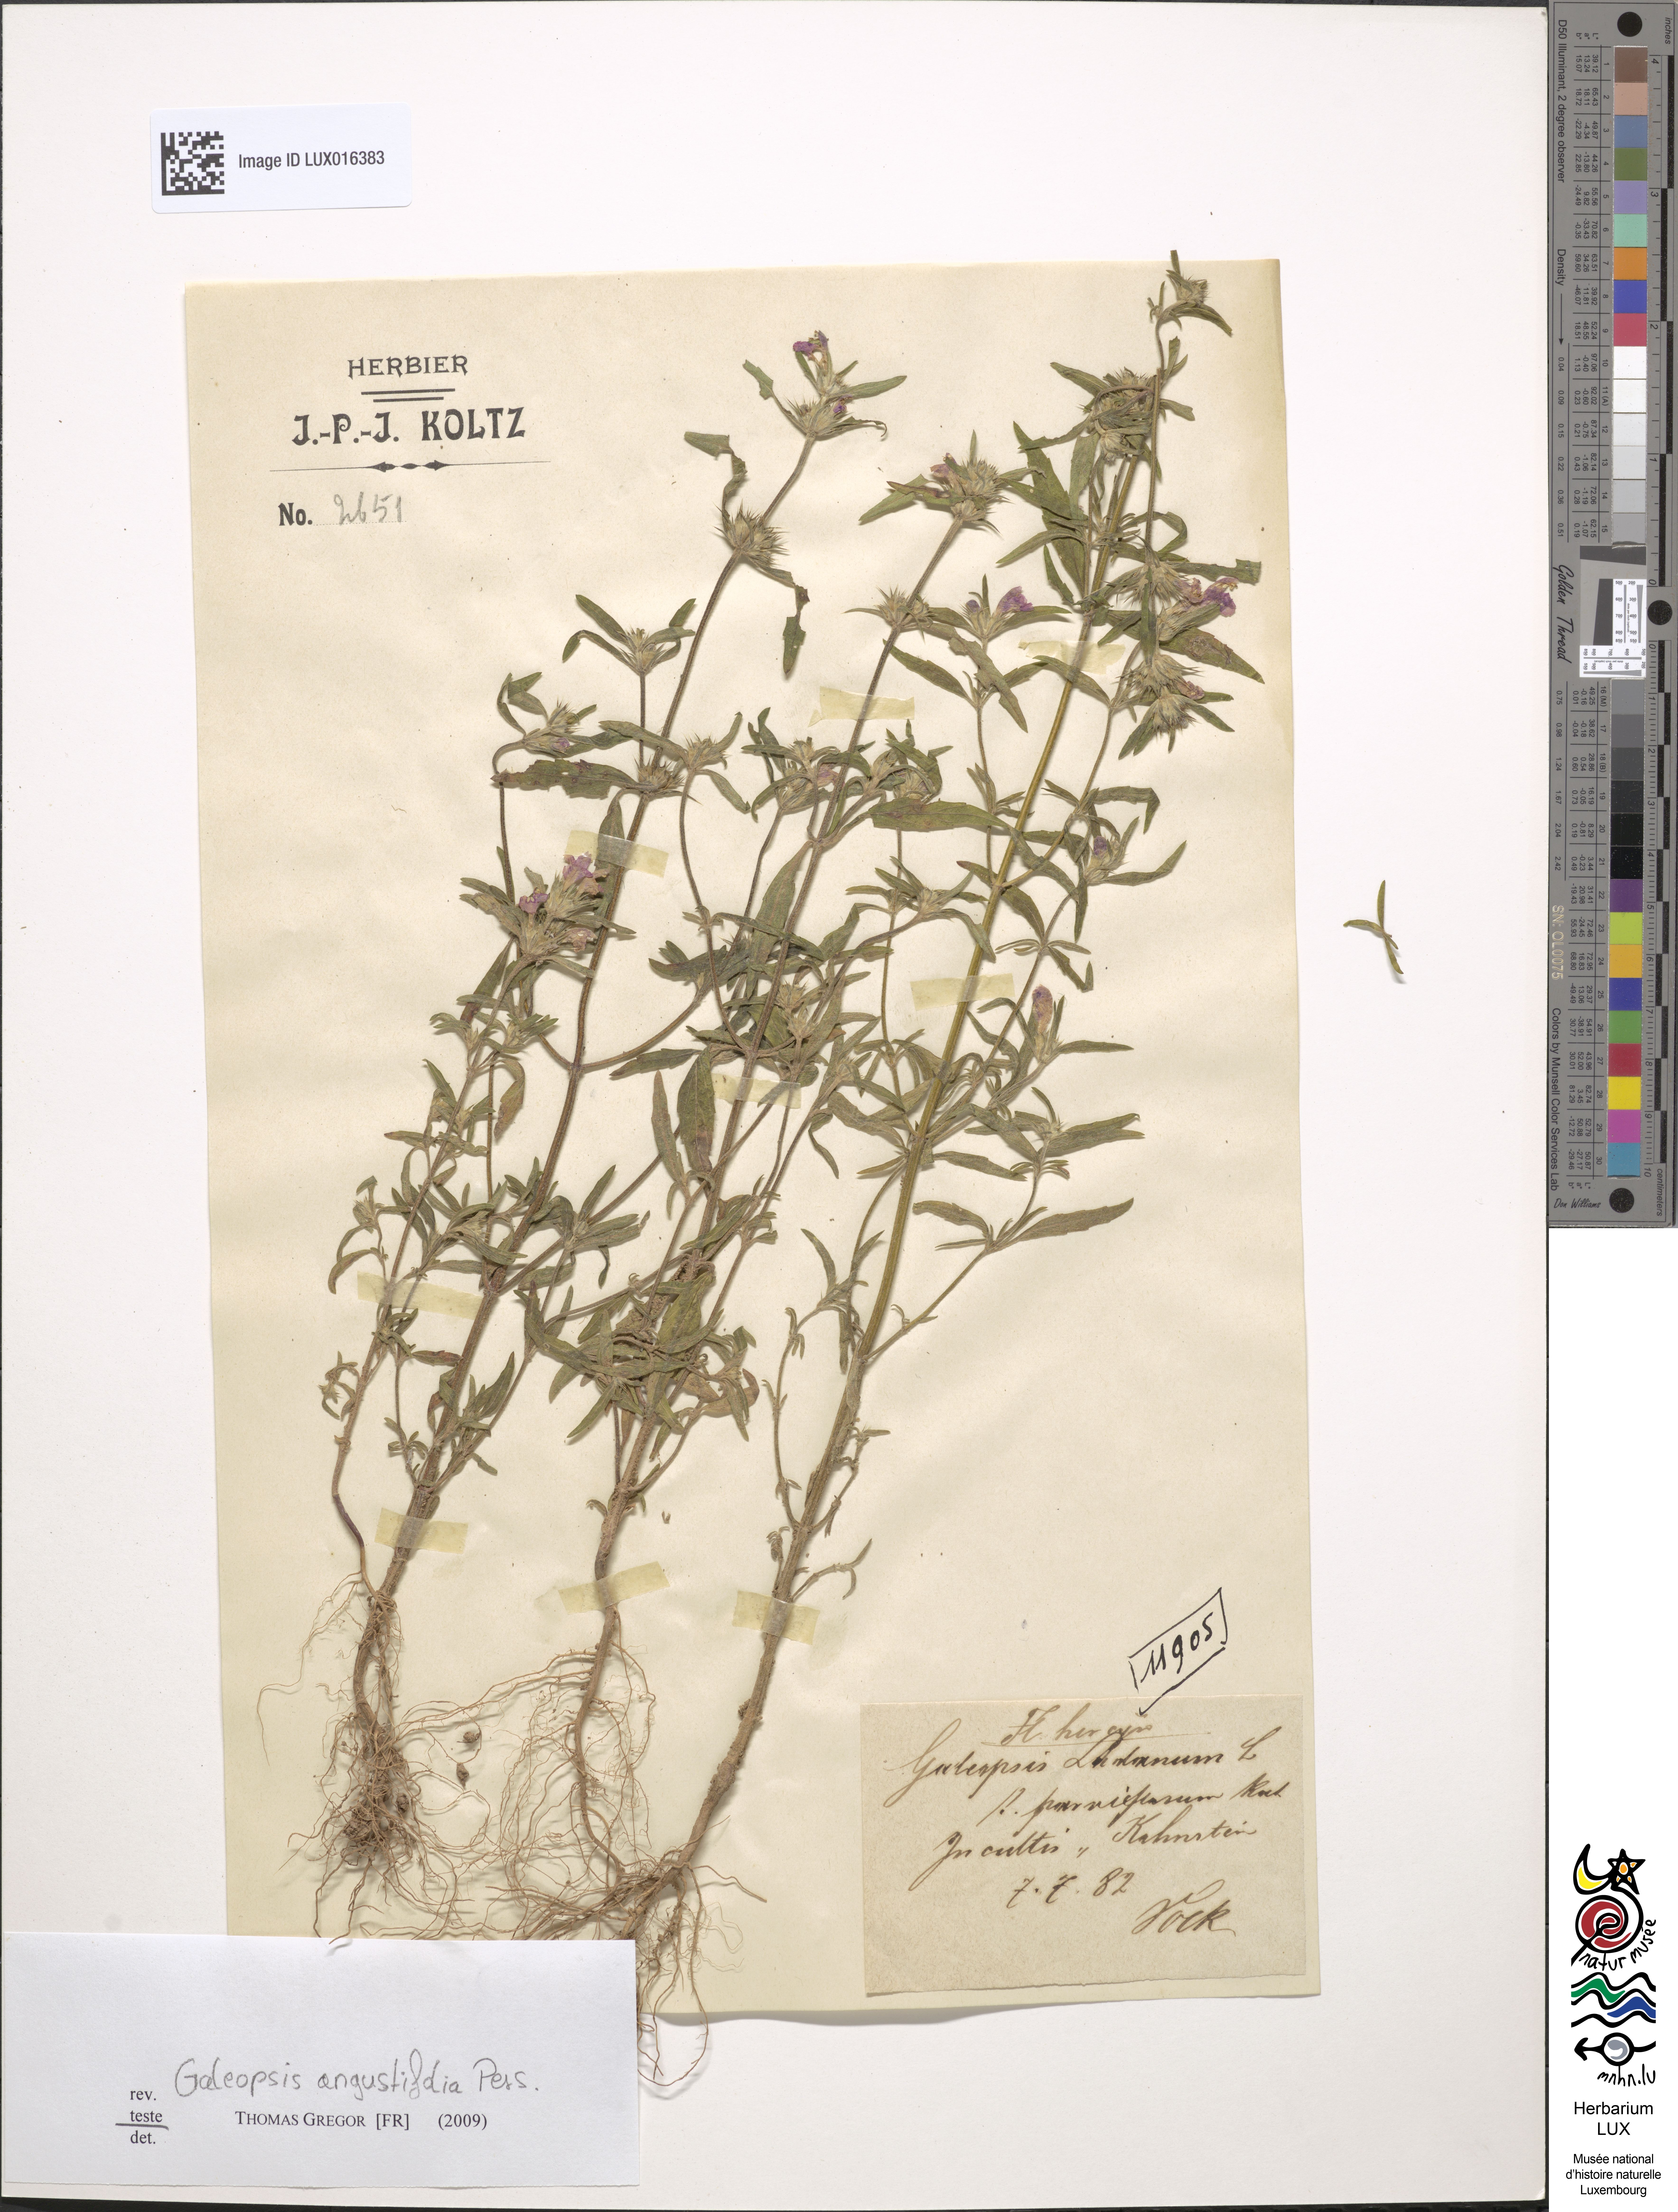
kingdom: Plantae
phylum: Tracheophyta
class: Magnoliopsida
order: Lamiales
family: Lamiaceae
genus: Galeopsis
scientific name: Galeopsis angustifolia
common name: Red hemp-nettle
